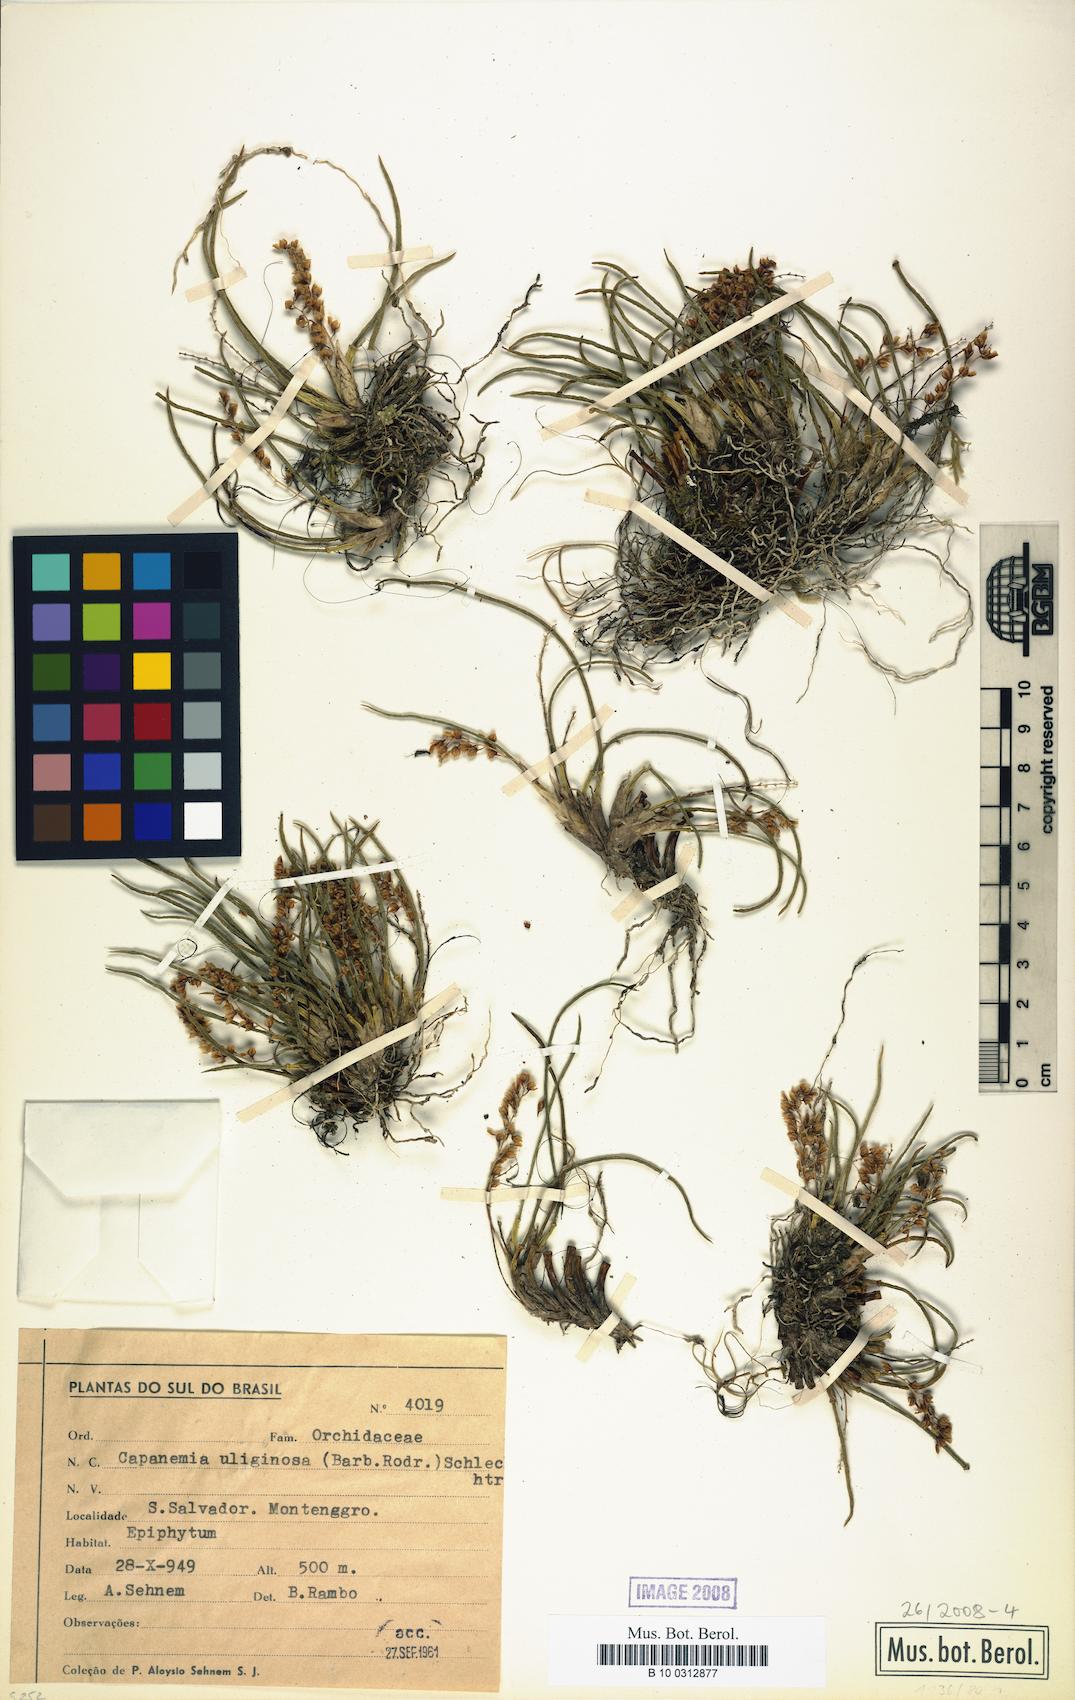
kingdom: Plantae
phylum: Tracheophyta
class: Liliopsida
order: Asparagales
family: Orchidaceae
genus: Capanemia
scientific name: Capanemia superflua
